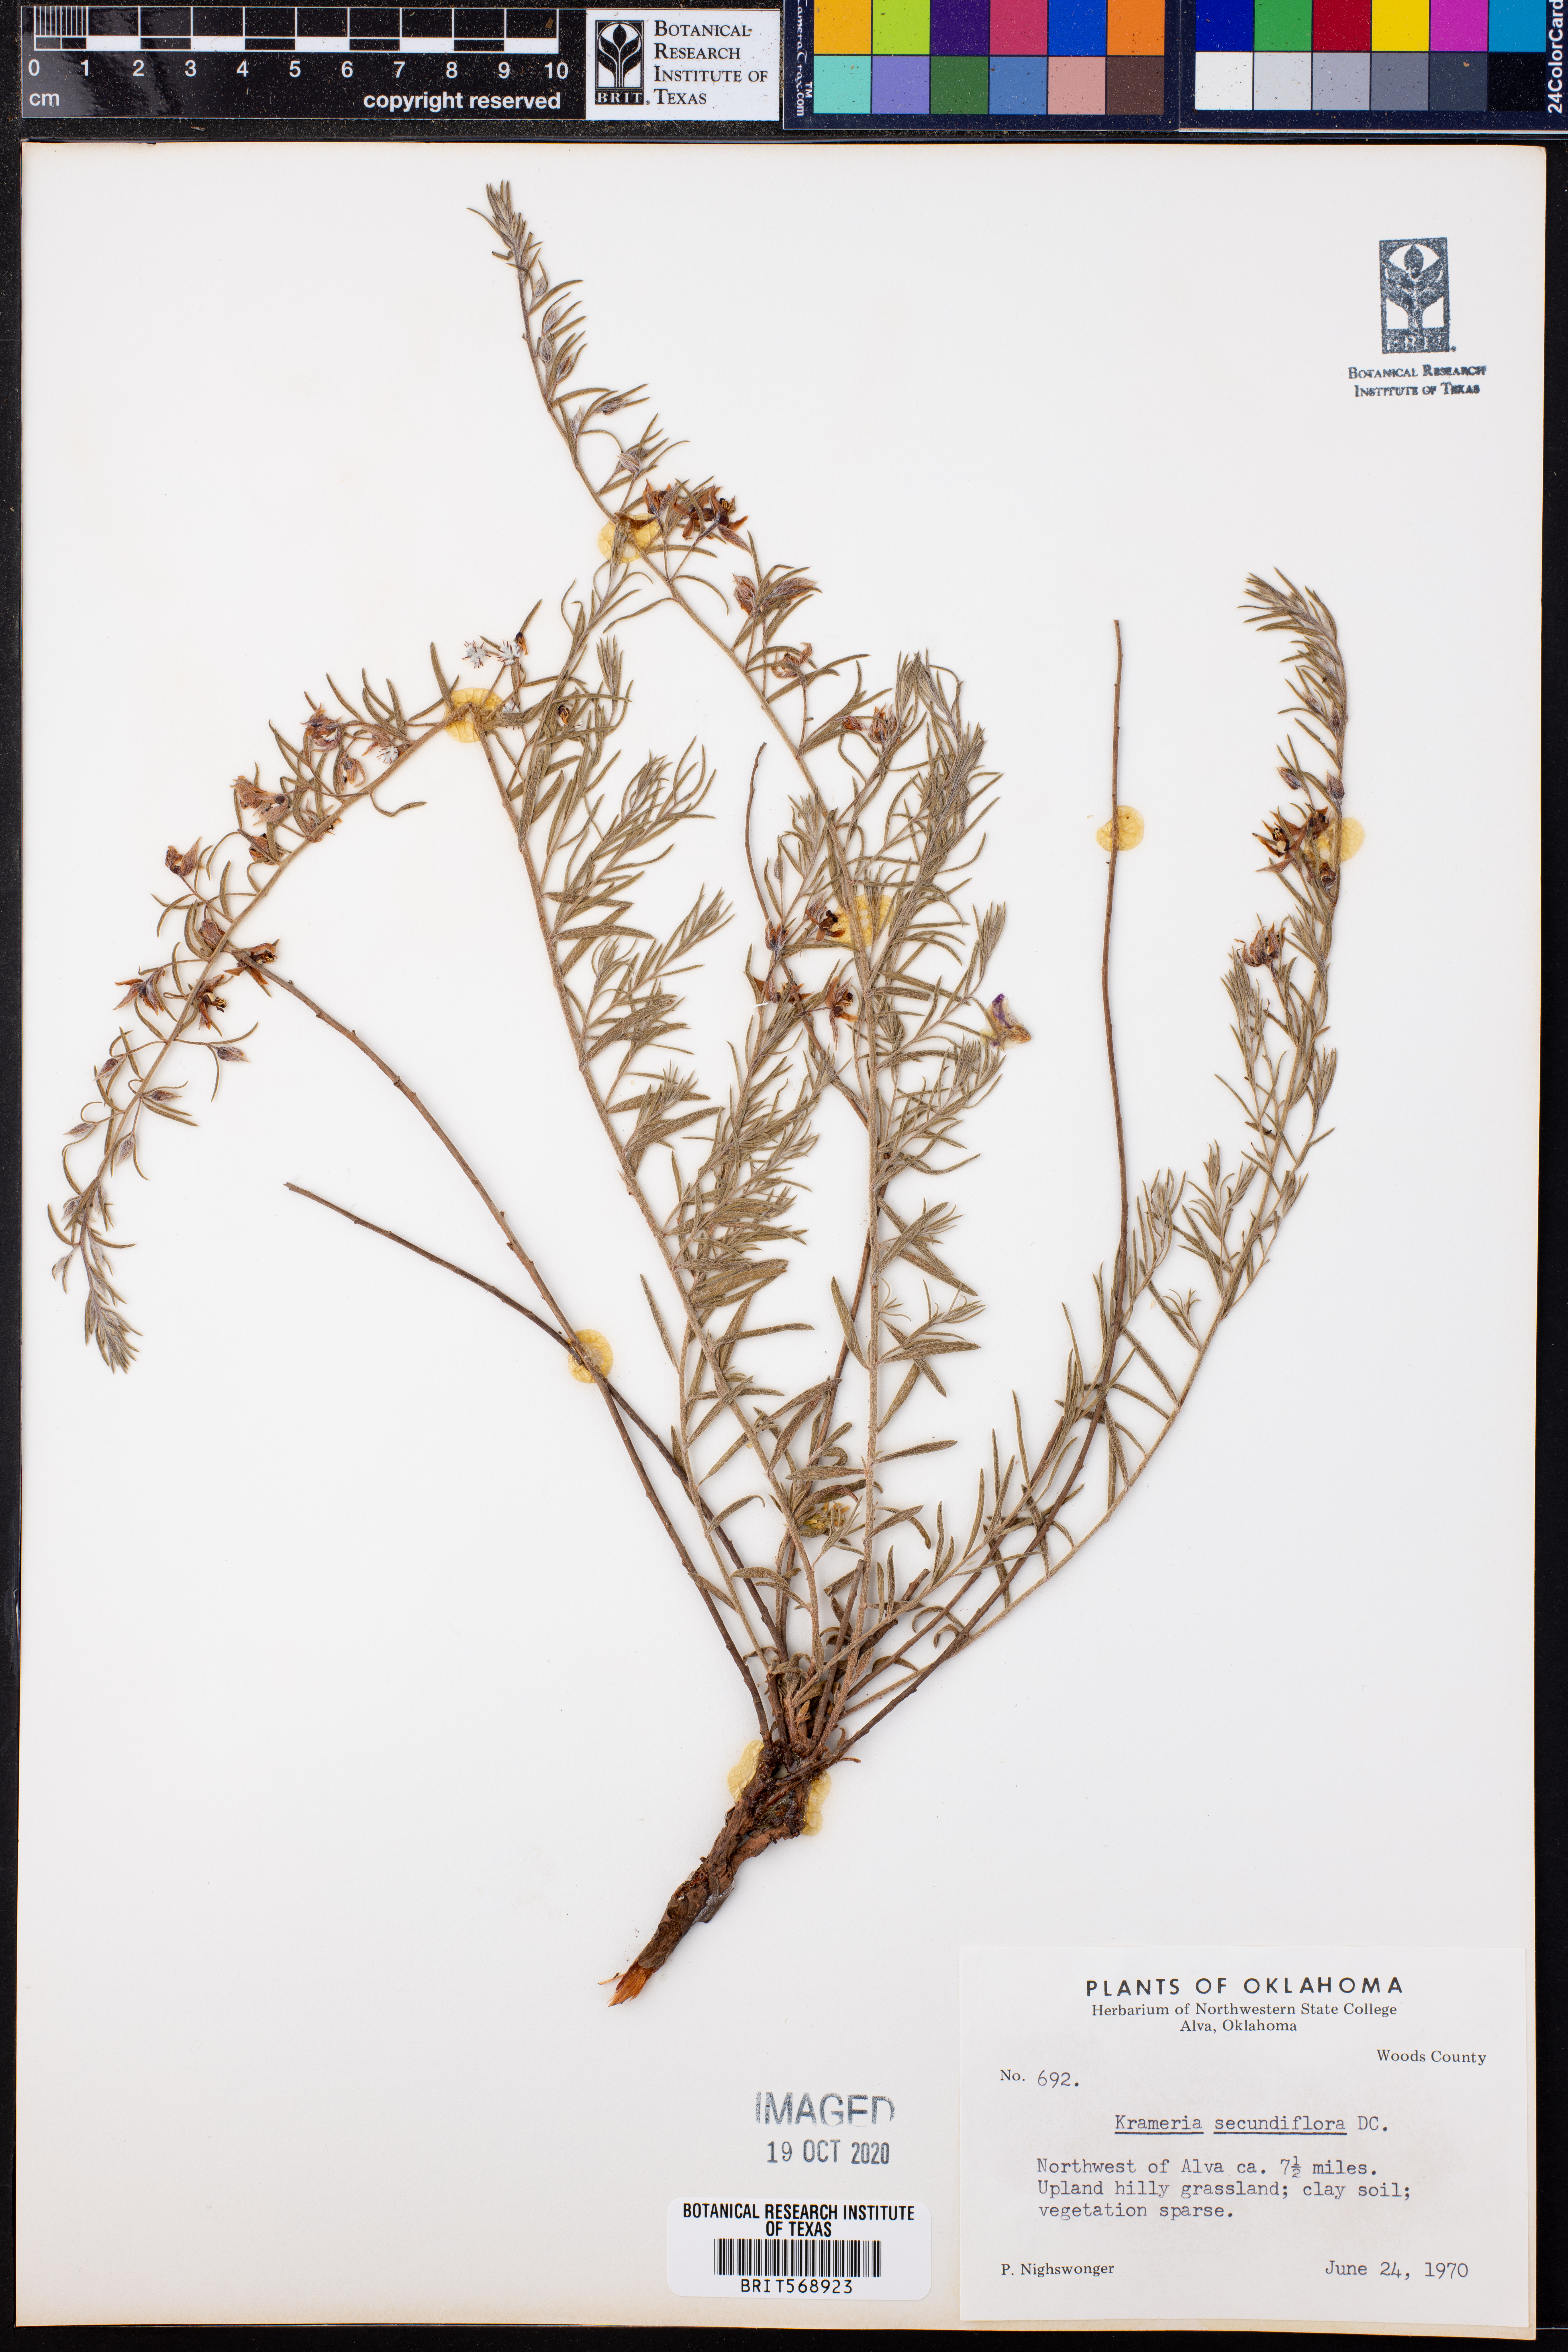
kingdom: Plantae
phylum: Tracheophyta
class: Magnoliopsida
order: Zygophyllales
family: Krameriaceae
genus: Krameria
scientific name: Krameria secundiflora
